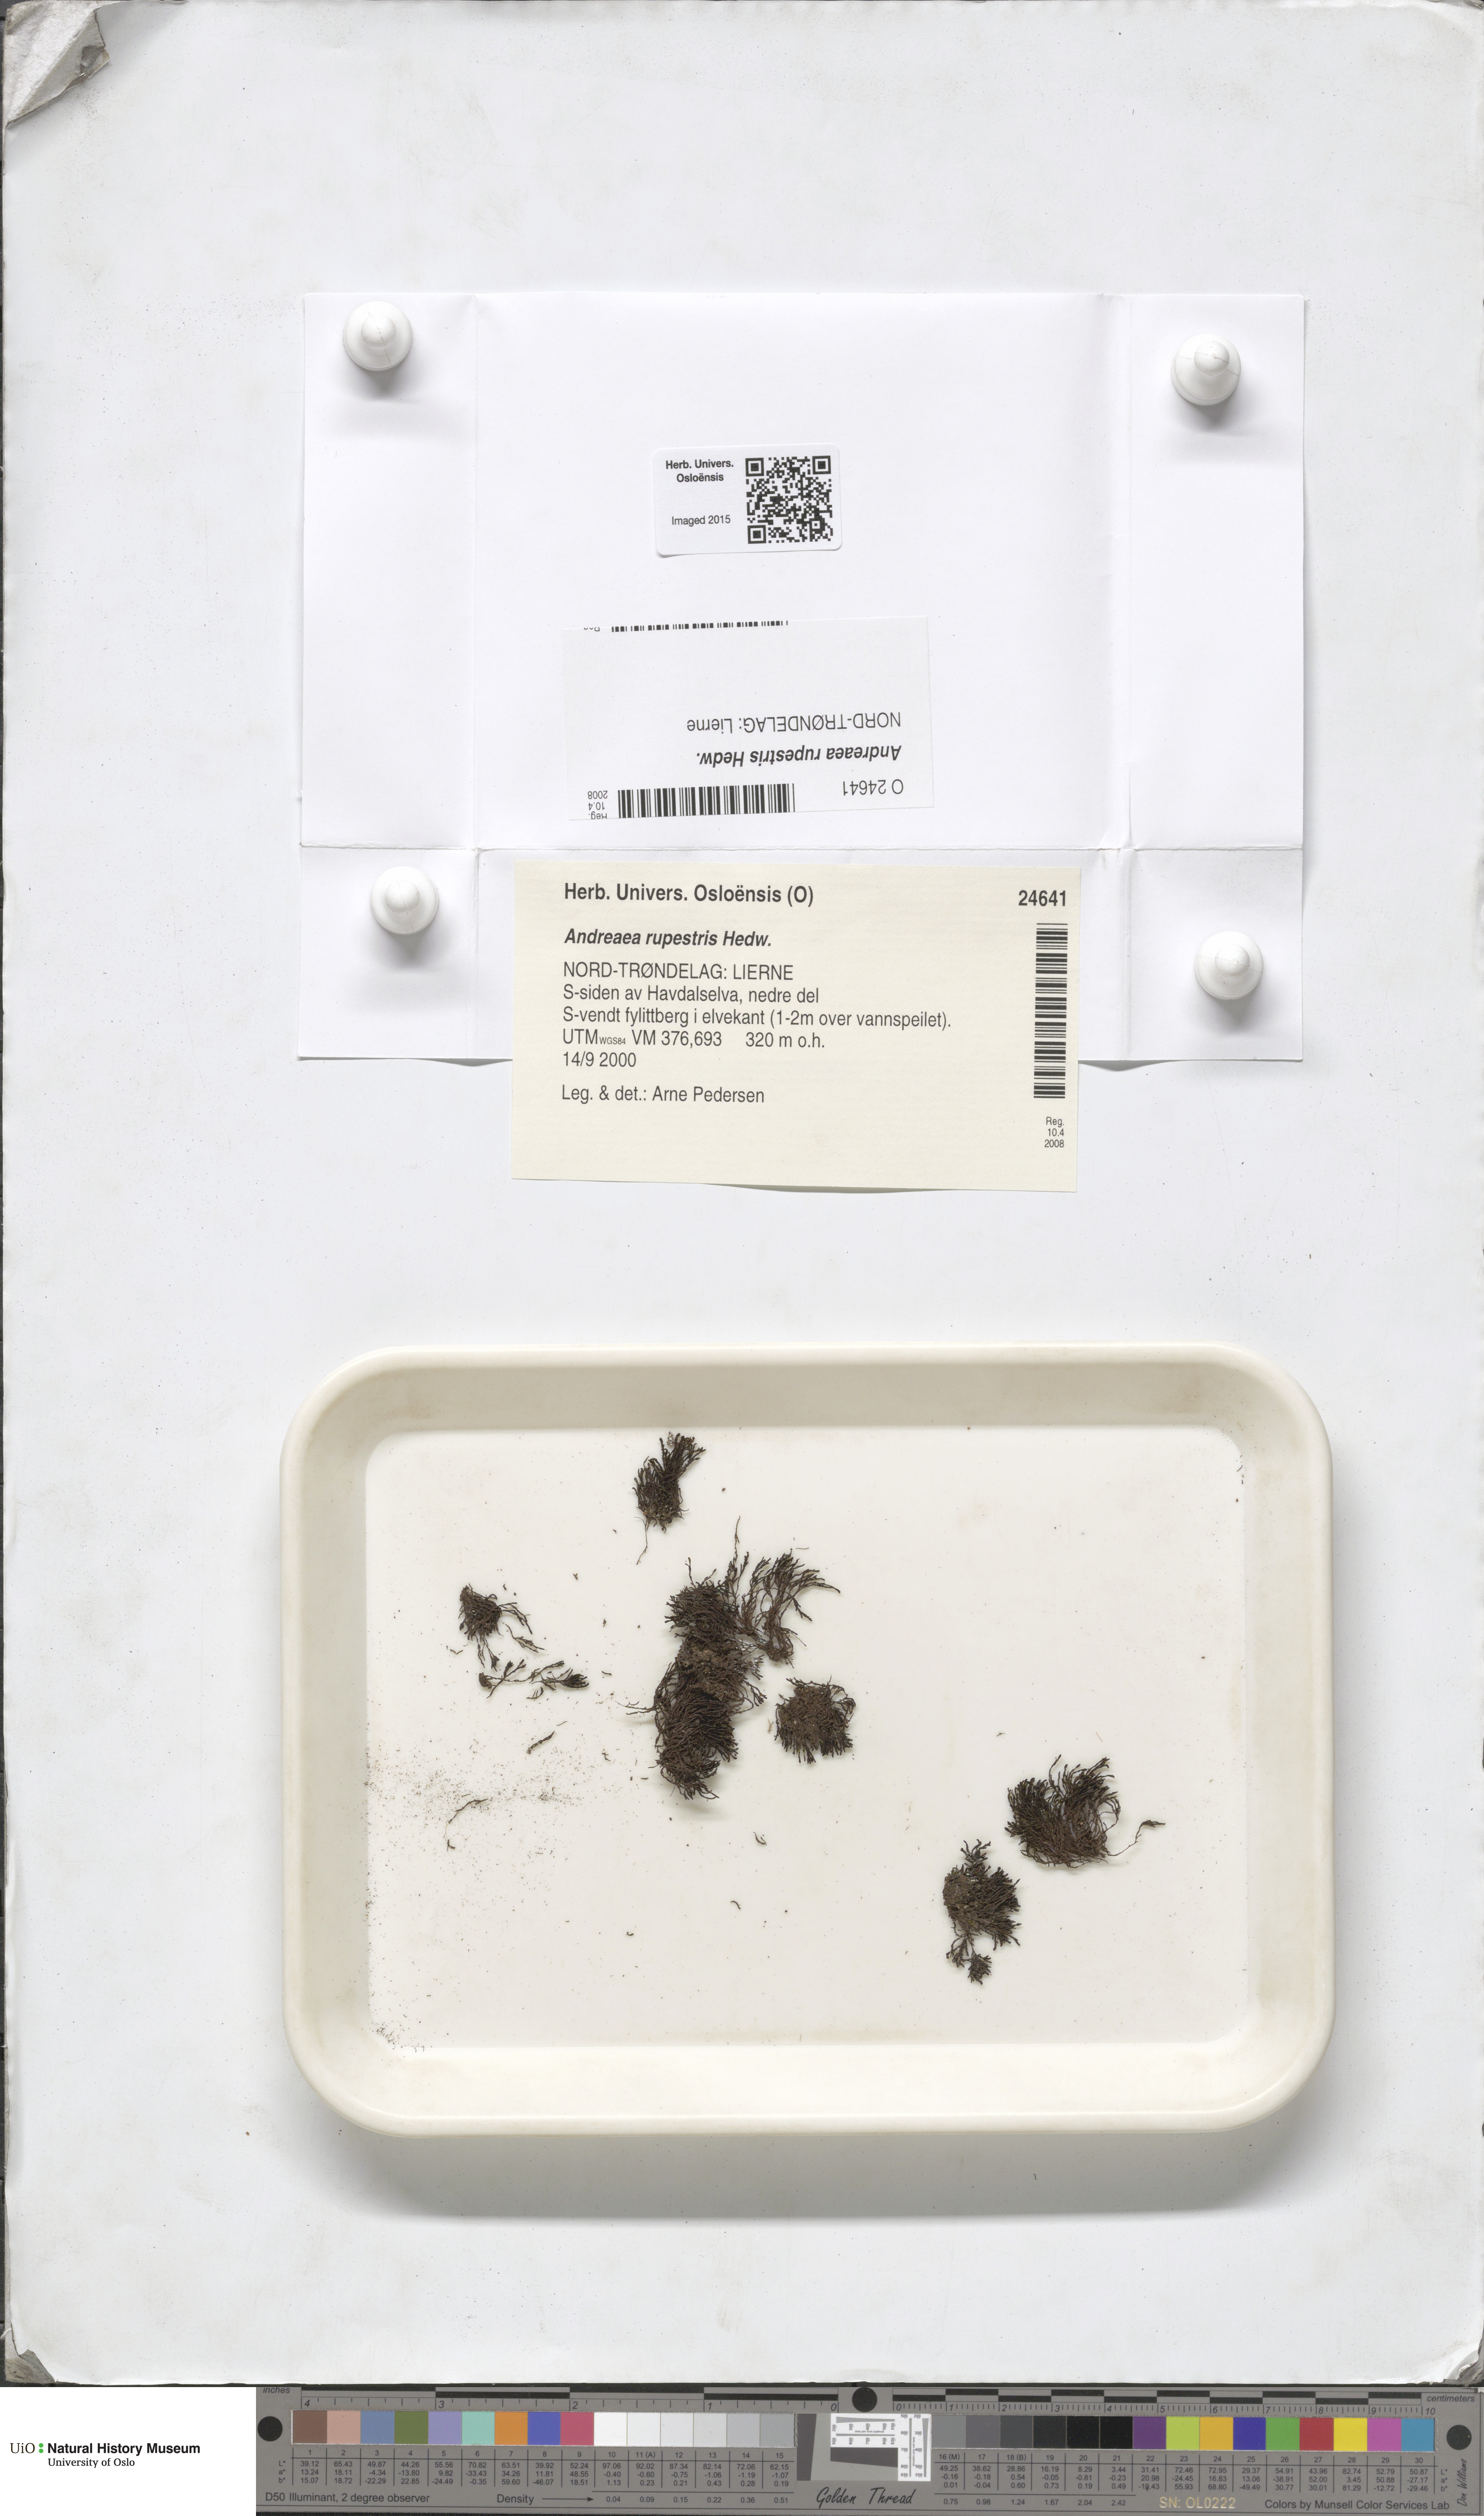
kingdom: Plantae
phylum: Bryophyta
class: Andreaeopsida
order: Andreaeales
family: Andreaeaceae
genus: Andreaea
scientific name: Andreaea rupestris
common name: Black rock moss
